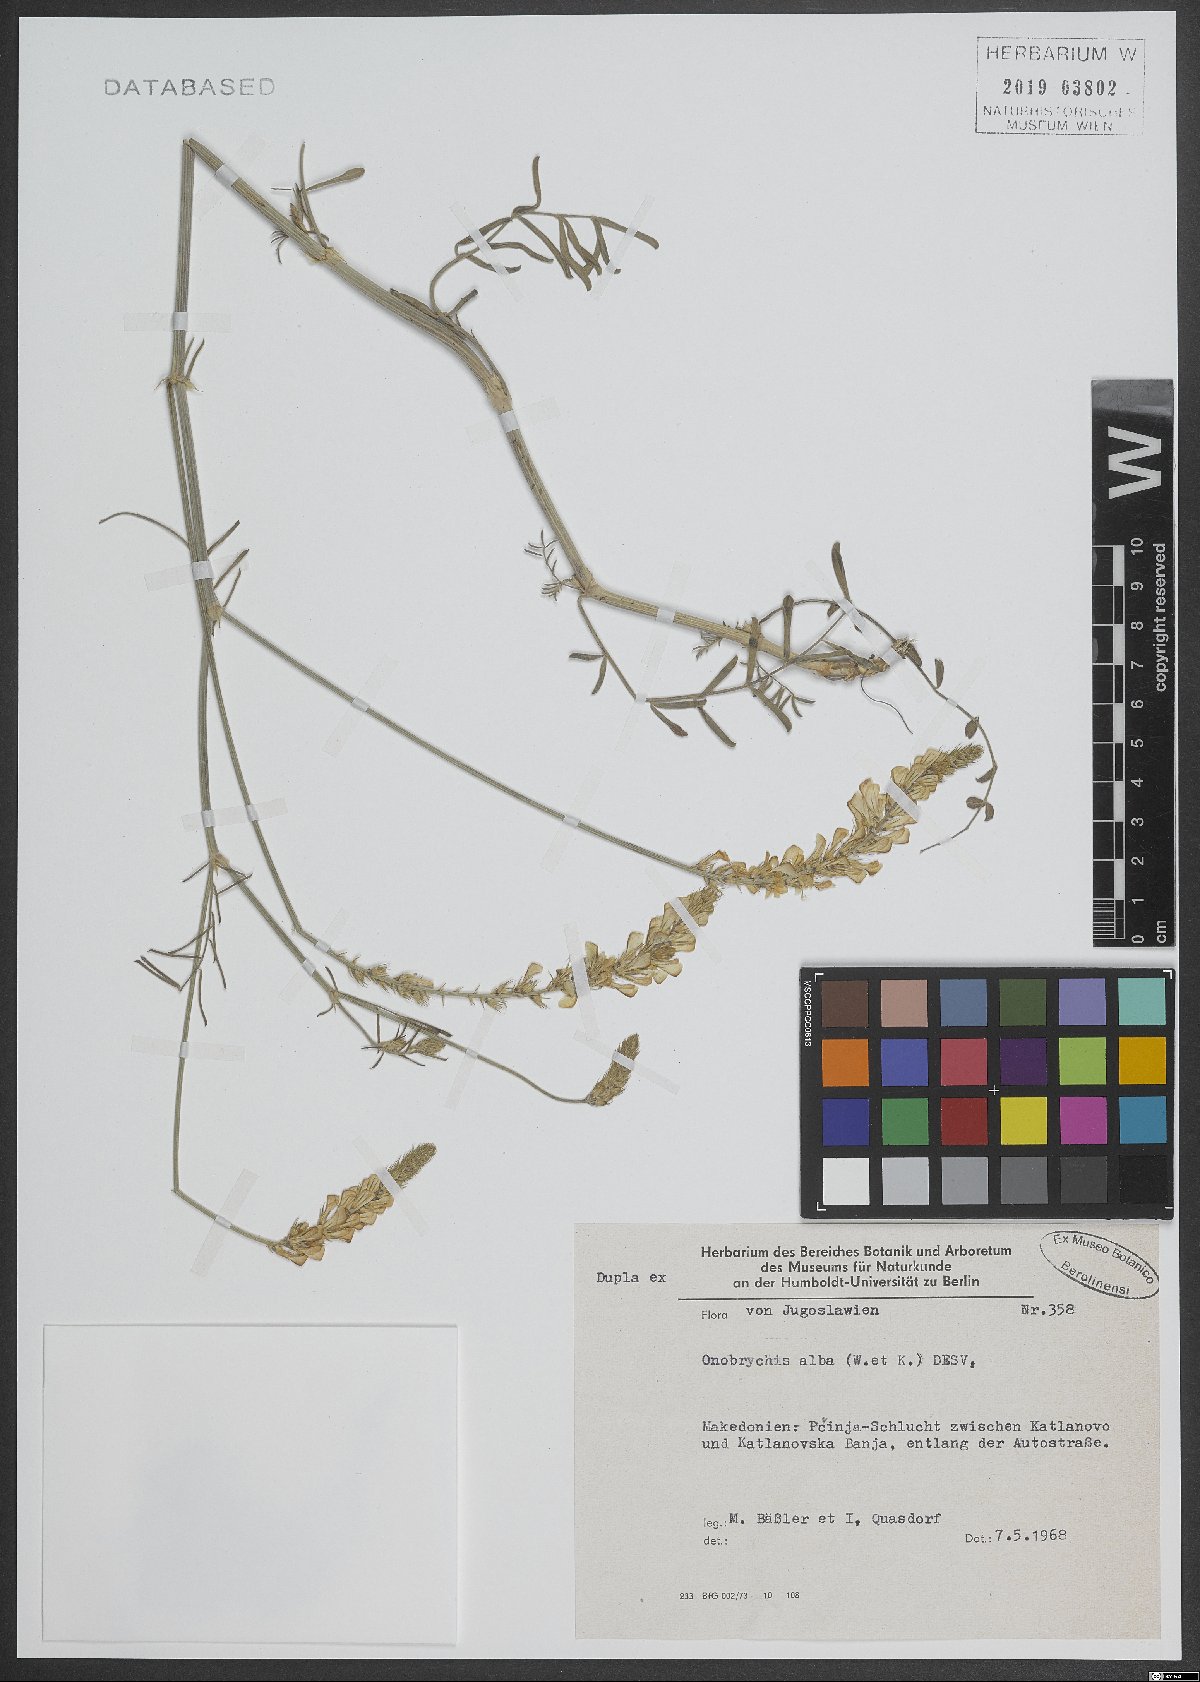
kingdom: Plantae
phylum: Tracheophyta
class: Magnoliopsida
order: Fabales
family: Fabaceae
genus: Onobrychis
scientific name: Onobrychis alba
